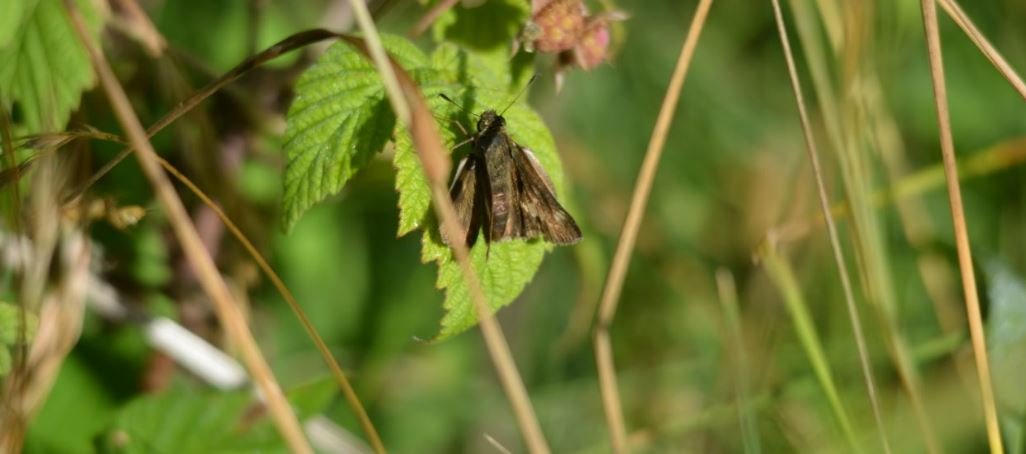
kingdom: Animalia
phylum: Arthropoda
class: Insecta
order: Lepidoptera
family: Hesperiidae
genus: Euphyes
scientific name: Euphyes vestris
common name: Dun Skipper
